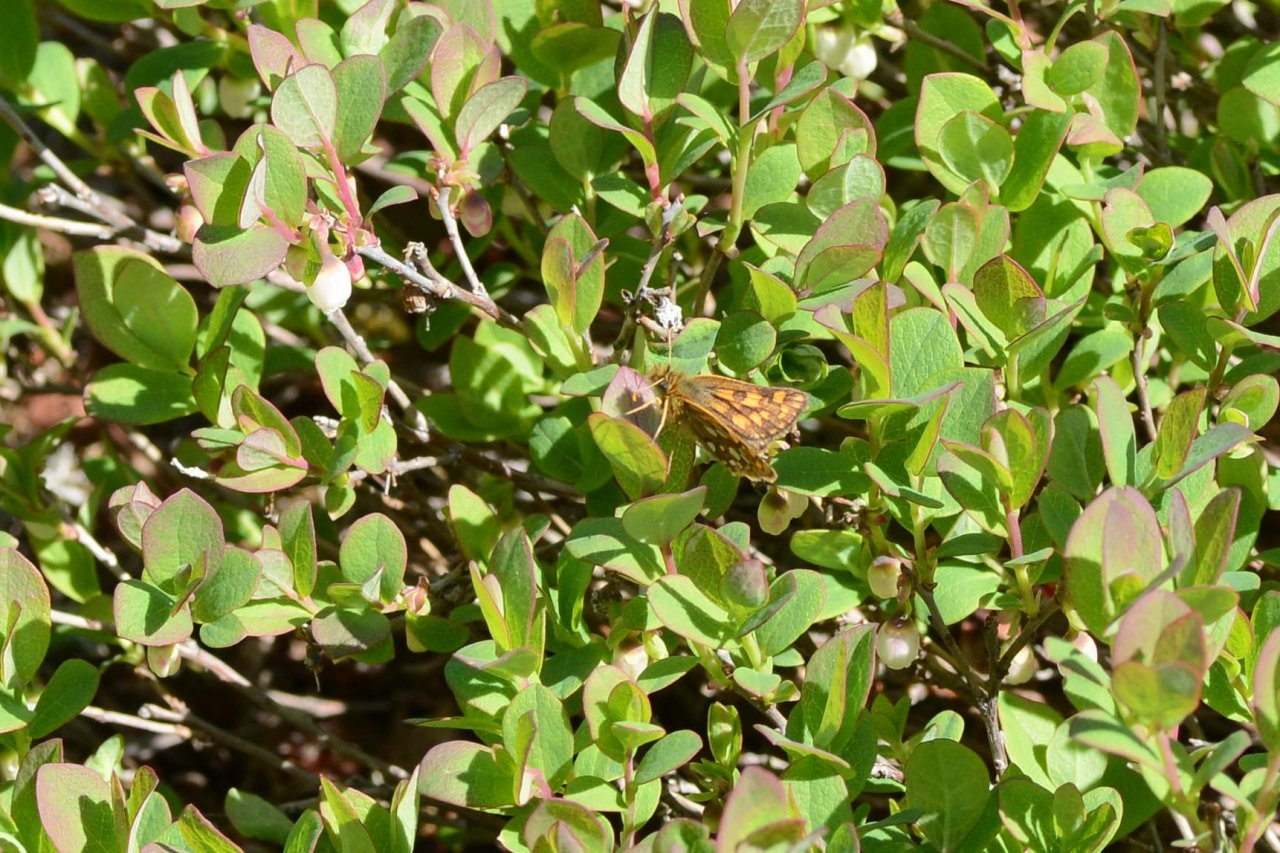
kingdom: Animalia
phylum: Arthropoda
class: Insecta
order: Lepidoptera
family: Hesperiidae
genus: Carterocephalus
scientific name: Carterocephalus palaemon
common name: Chequered Skipper
